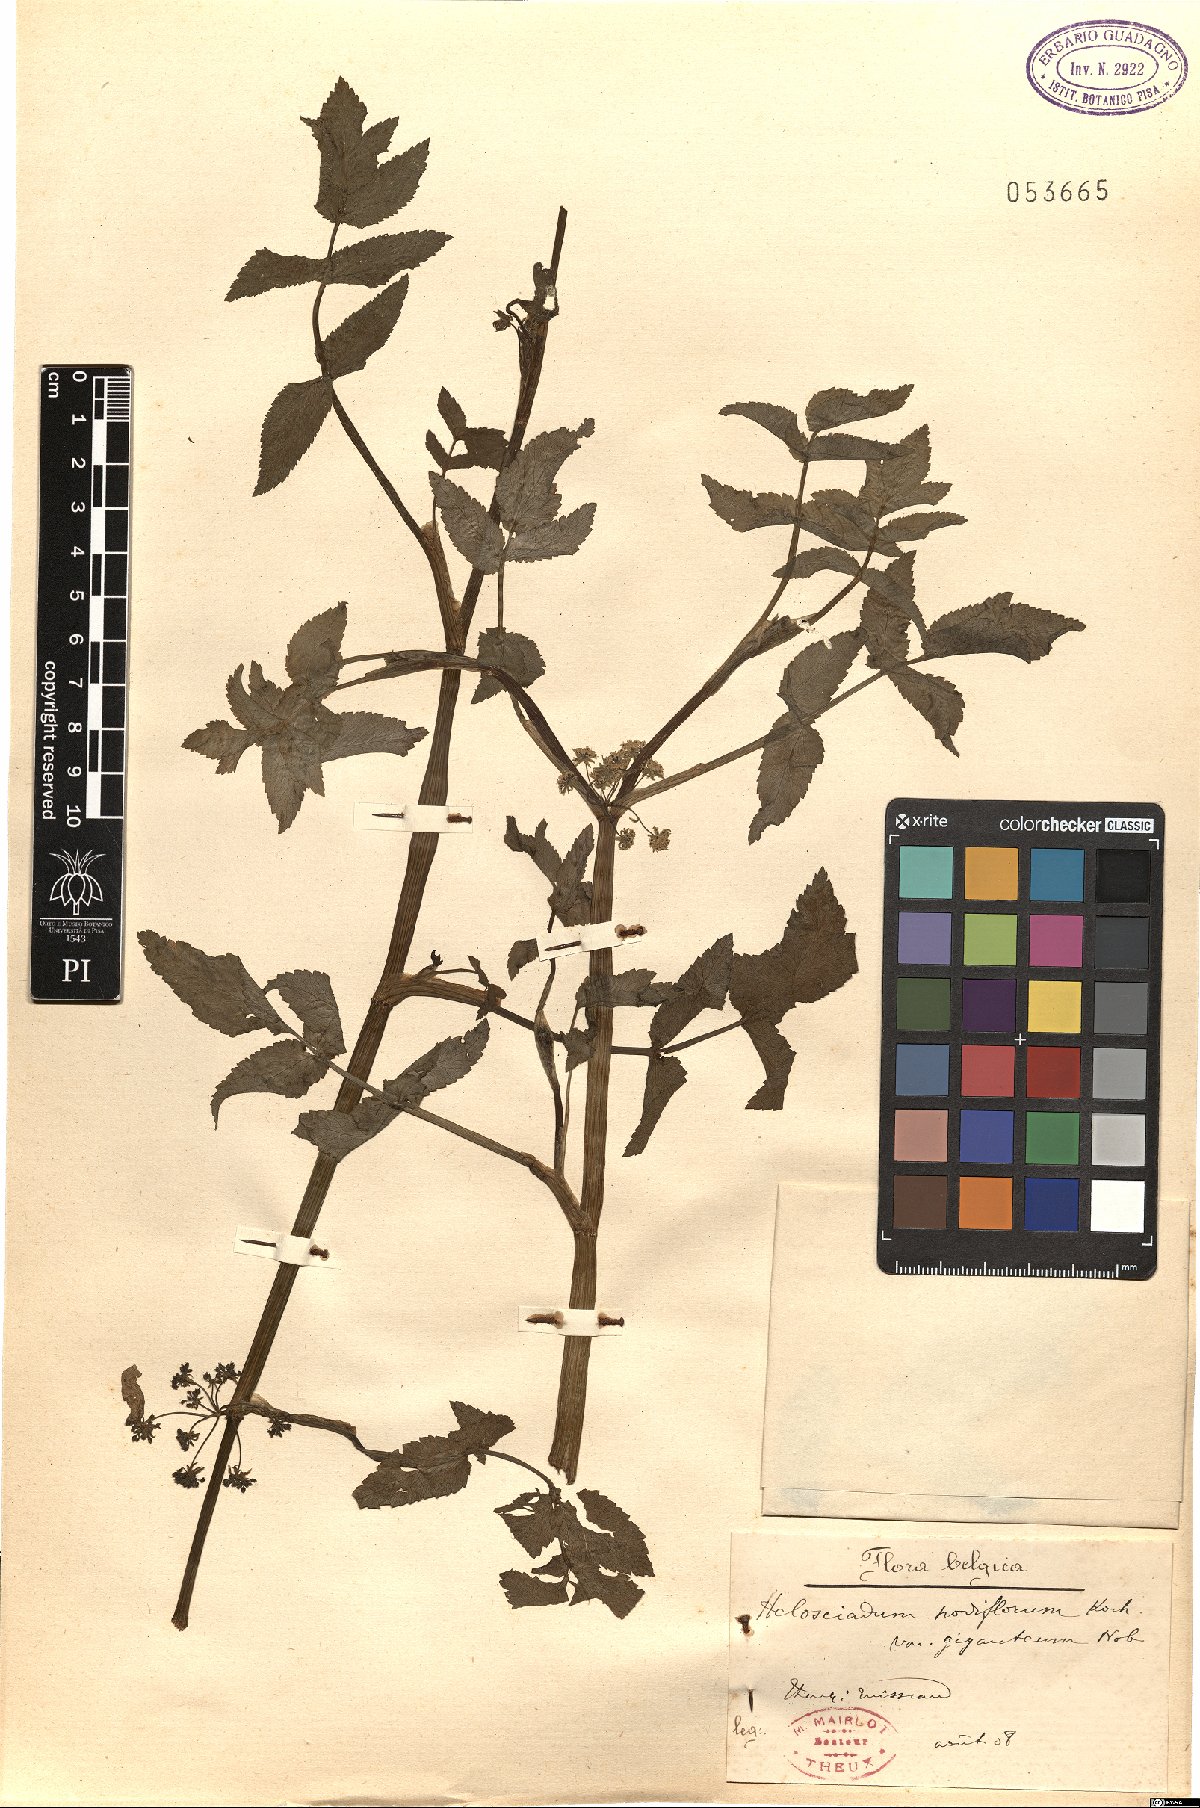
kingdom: Plantae
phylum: Tracheophyta
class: Magnoliopsida
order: Apiales
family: Apiaceae
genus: Helosciadium
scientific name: Helosciadium nodiflorum
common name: Fool's-watercress
